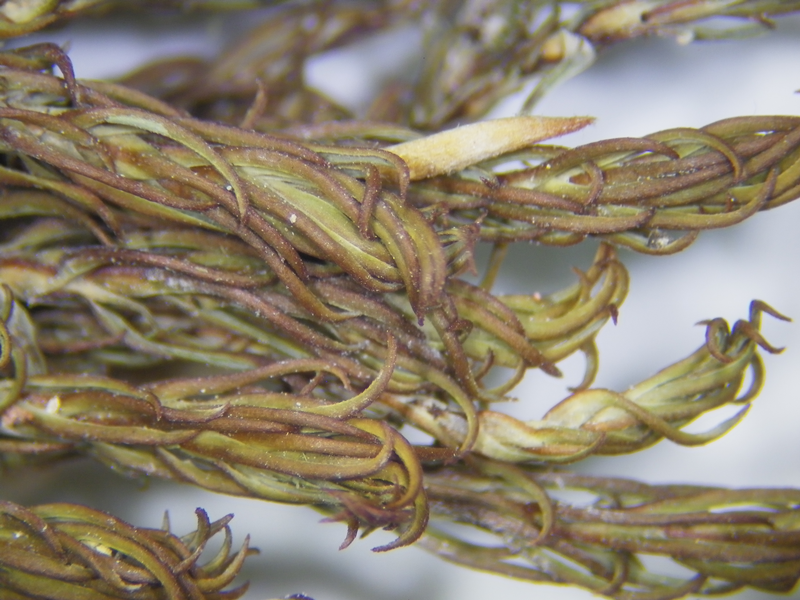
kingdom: Plantae
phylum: Bryophyta
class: Polytrichopsida
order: Polytrichales
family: Polytrichaceae
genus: Pogonatum
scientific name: Pogonatum neesii
